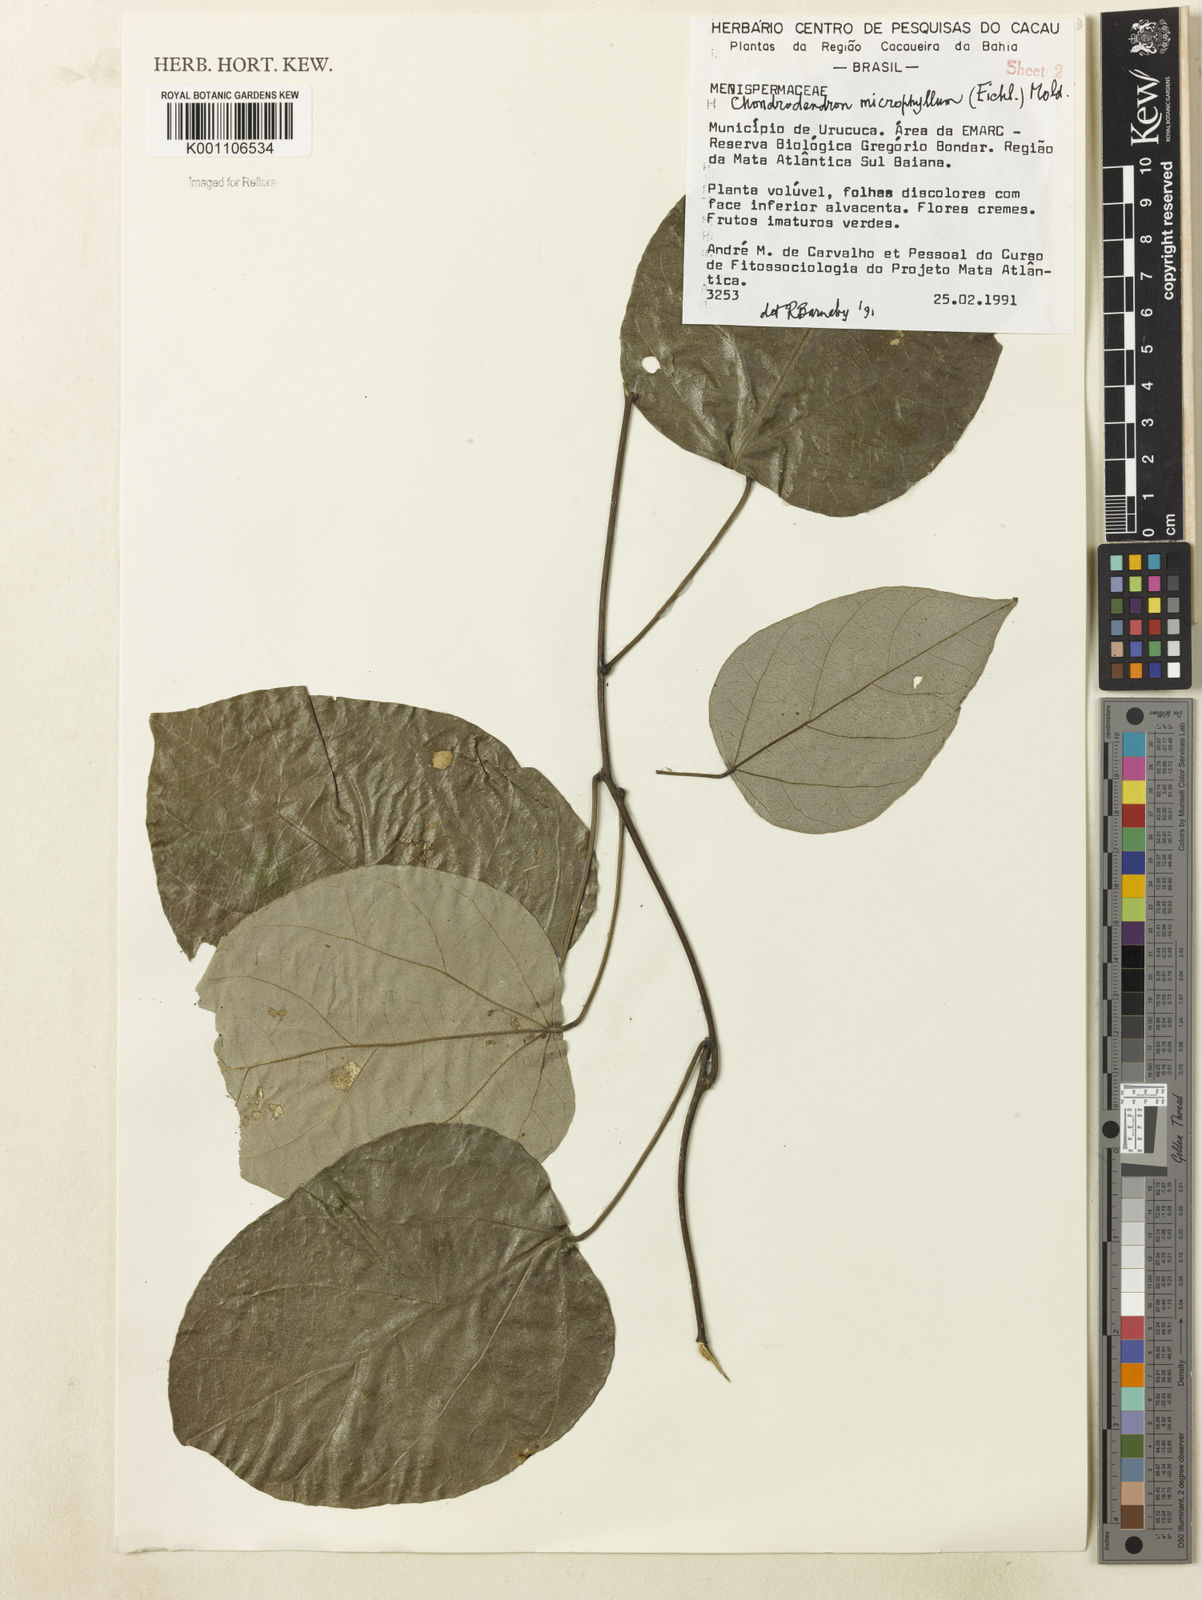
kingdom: Plantae
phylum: Tracheophyta
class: Magnoliopsida
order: Ranunculales
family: Menispermaceae
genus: Chondrodendron
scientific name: Chondrodendron microphyllum
